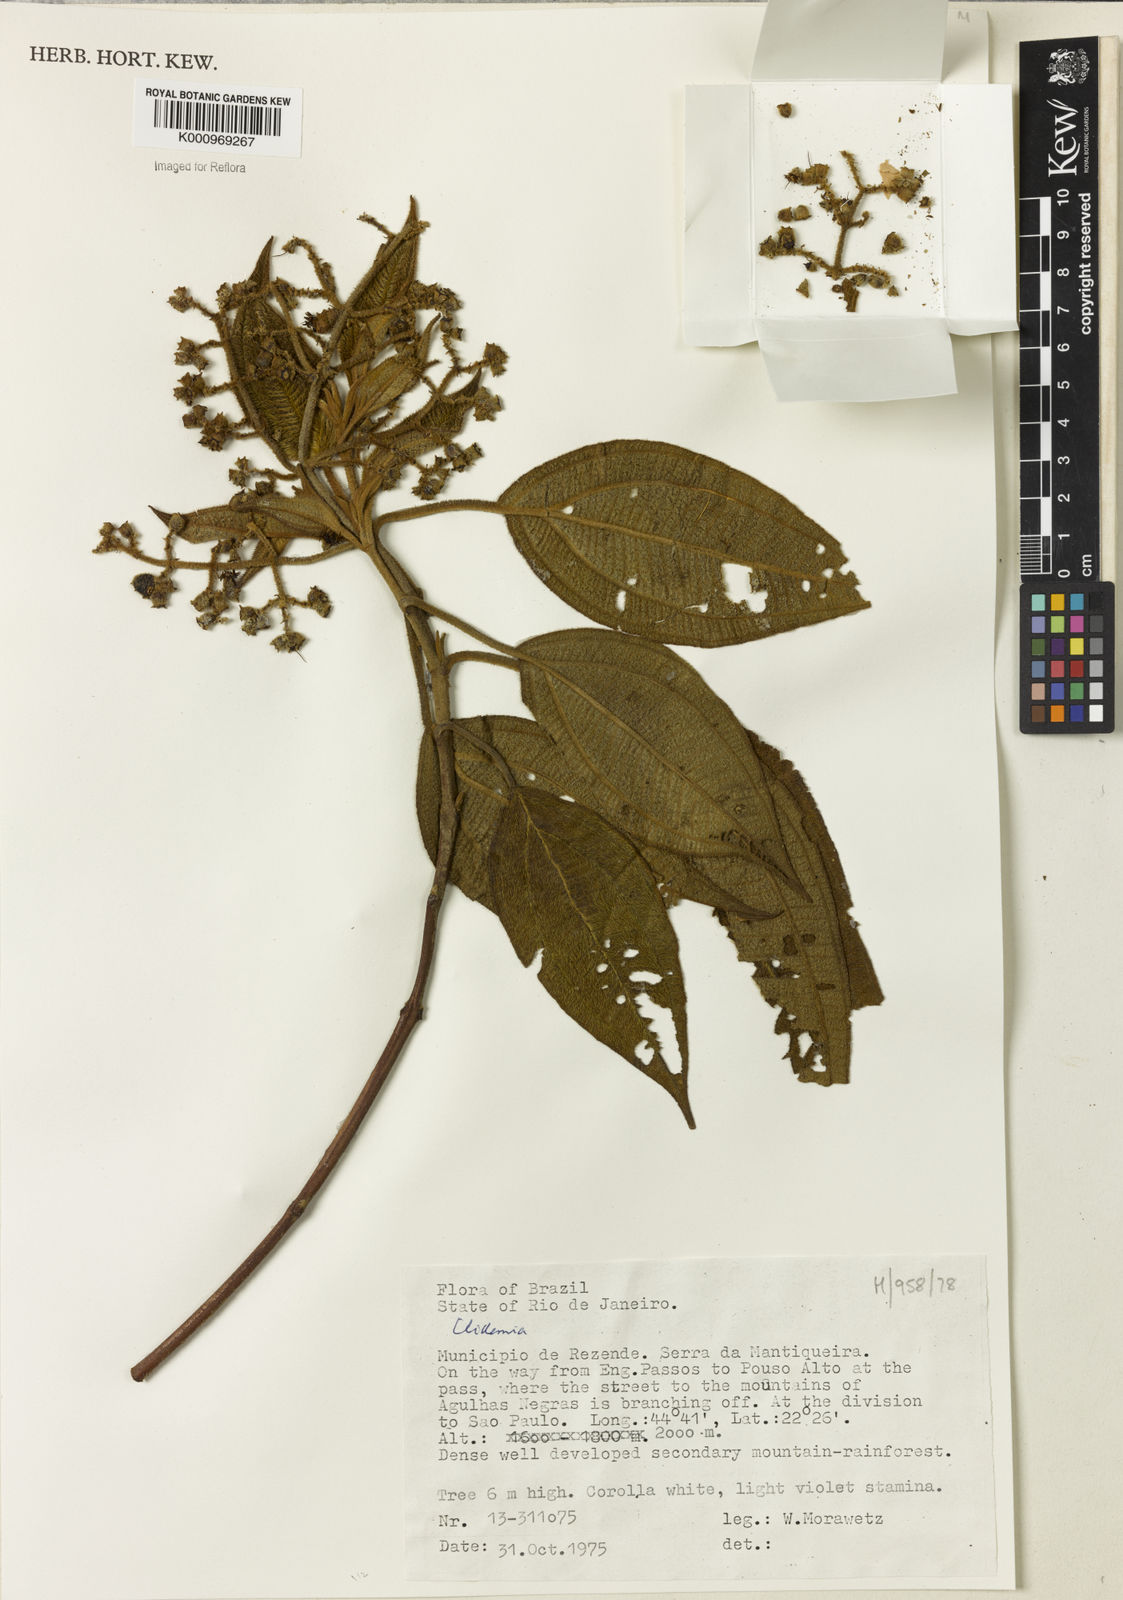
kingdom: Plantae
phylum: Tracheophyta
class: Magnoliopsida
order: Myrtales
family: Melastomataceae
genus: Miconia
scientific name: Miconia
